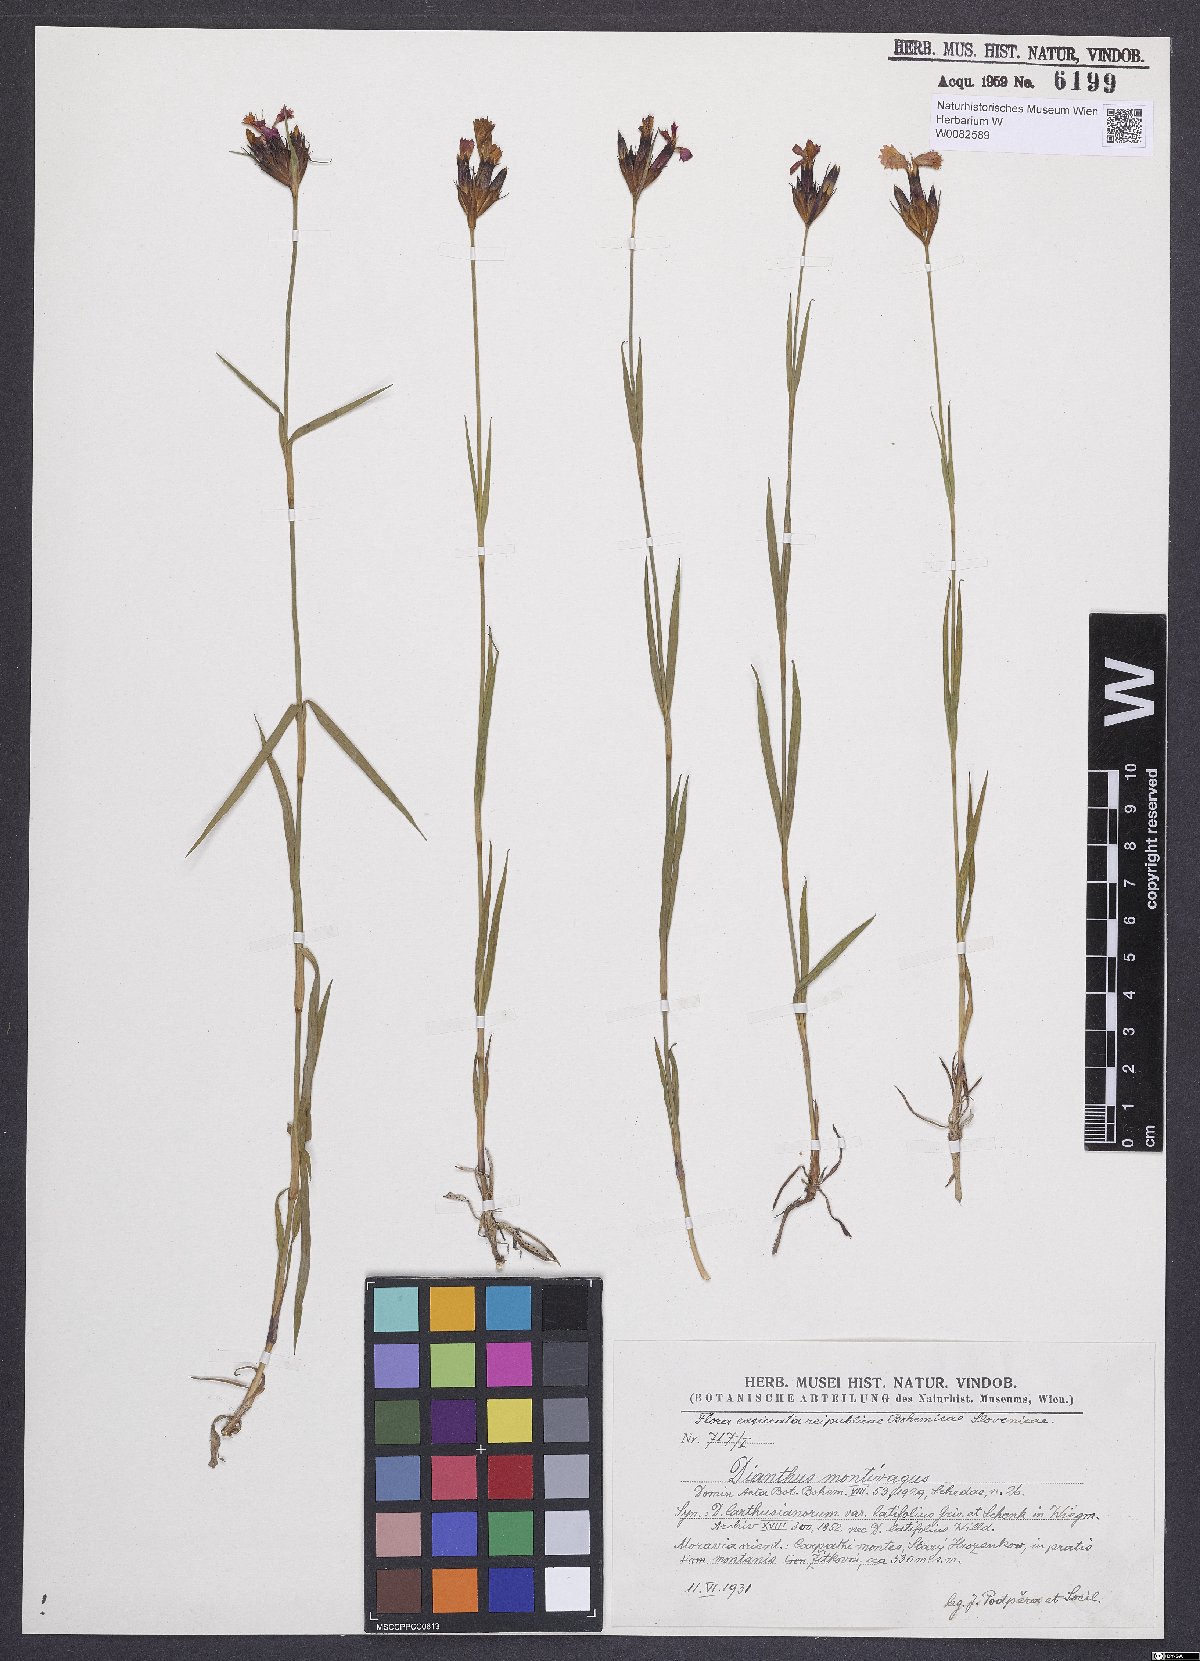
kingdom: Plantae
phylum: Tracheophyta
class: Magnoliopsida
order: Caryophyllales
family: Caryophyllaceae
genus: Dianthus
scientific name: Dianthus carthusianorum
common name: Carthusian pink
